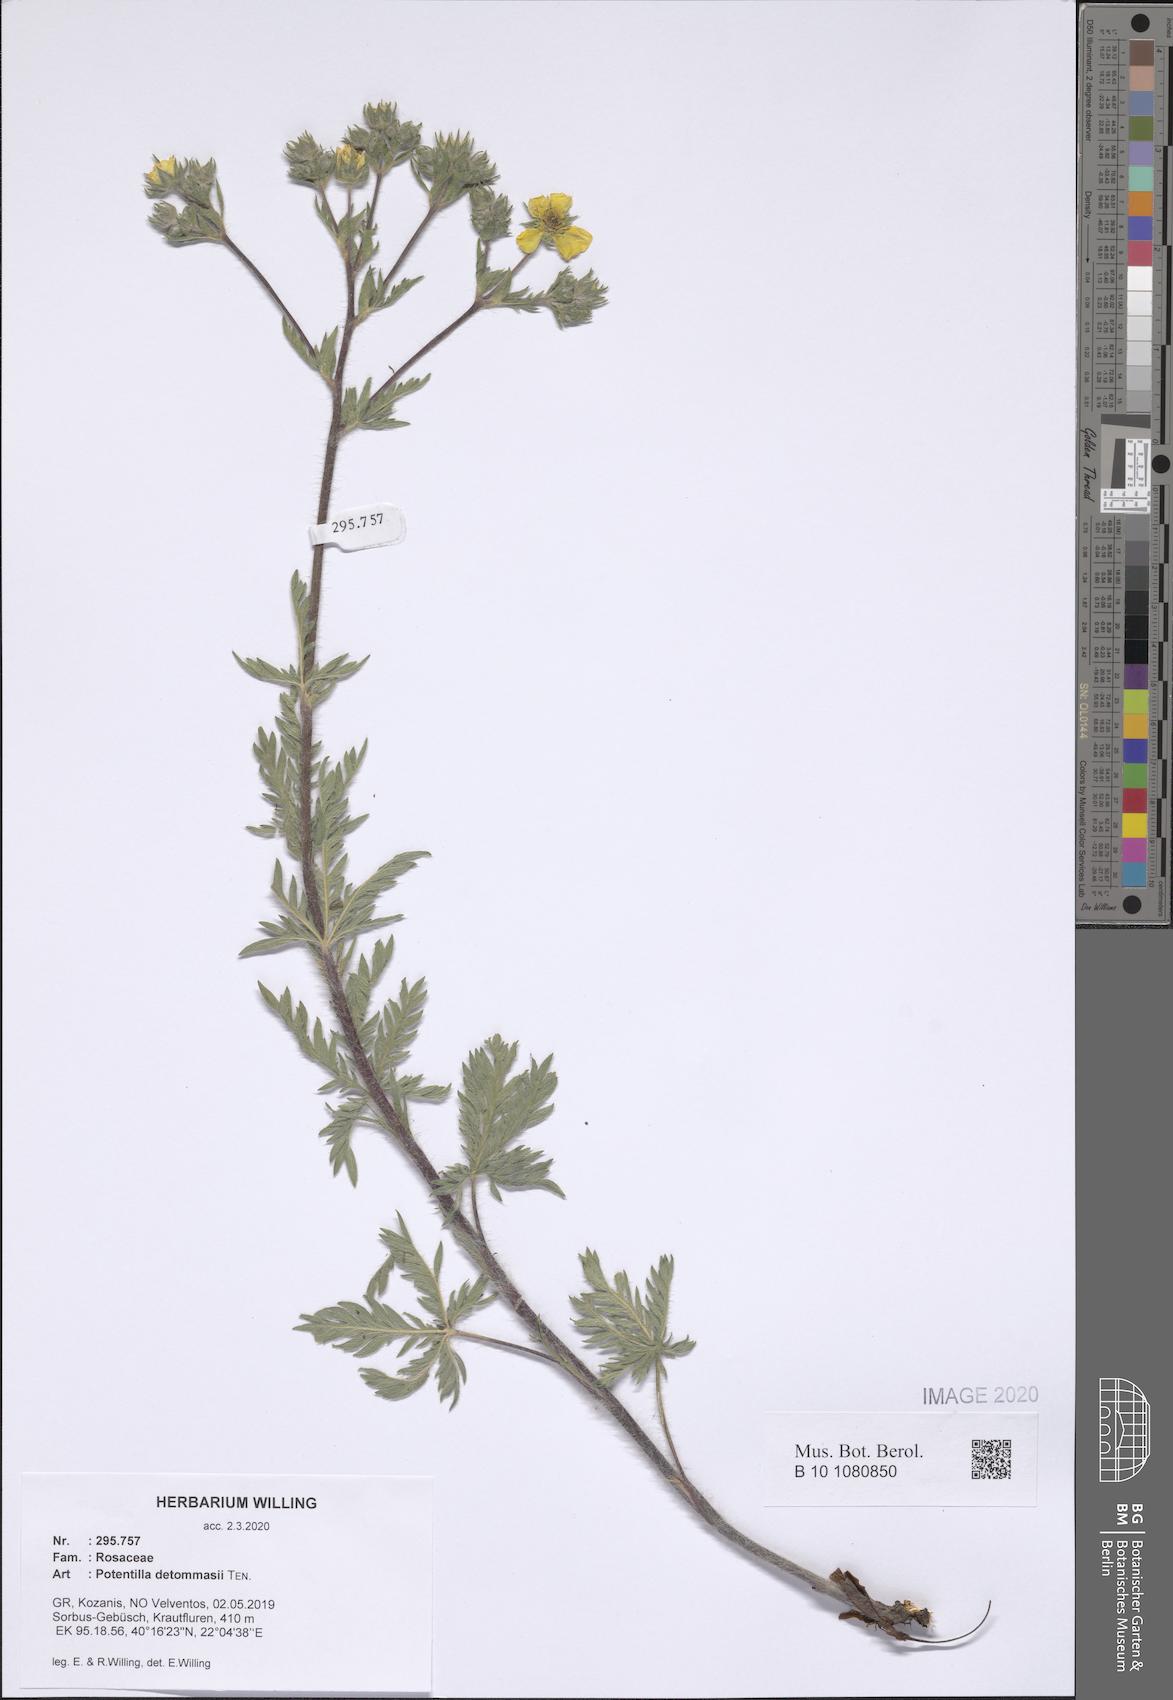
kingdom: Plantae
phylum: Tracheophyta
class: Magnoliopsida
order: Rosales
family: Rosaceae
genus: Potentilla
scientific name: Potentilla detommasii
